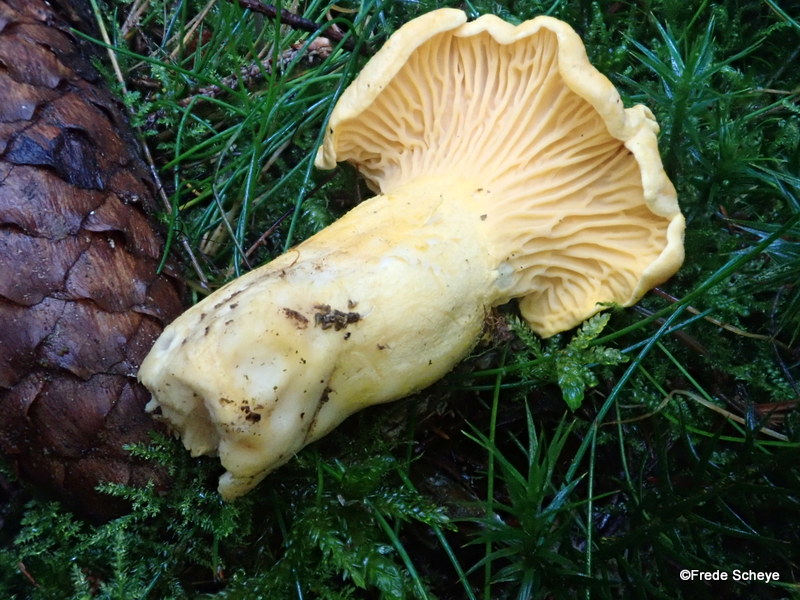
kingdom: Fungi
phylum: Basidiomycota
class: Agaricomycetes
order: Cantharellales
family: Hydnaceae
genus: Cantharellus
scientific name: Cantharellus cibarius
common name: almindelig kantarel
